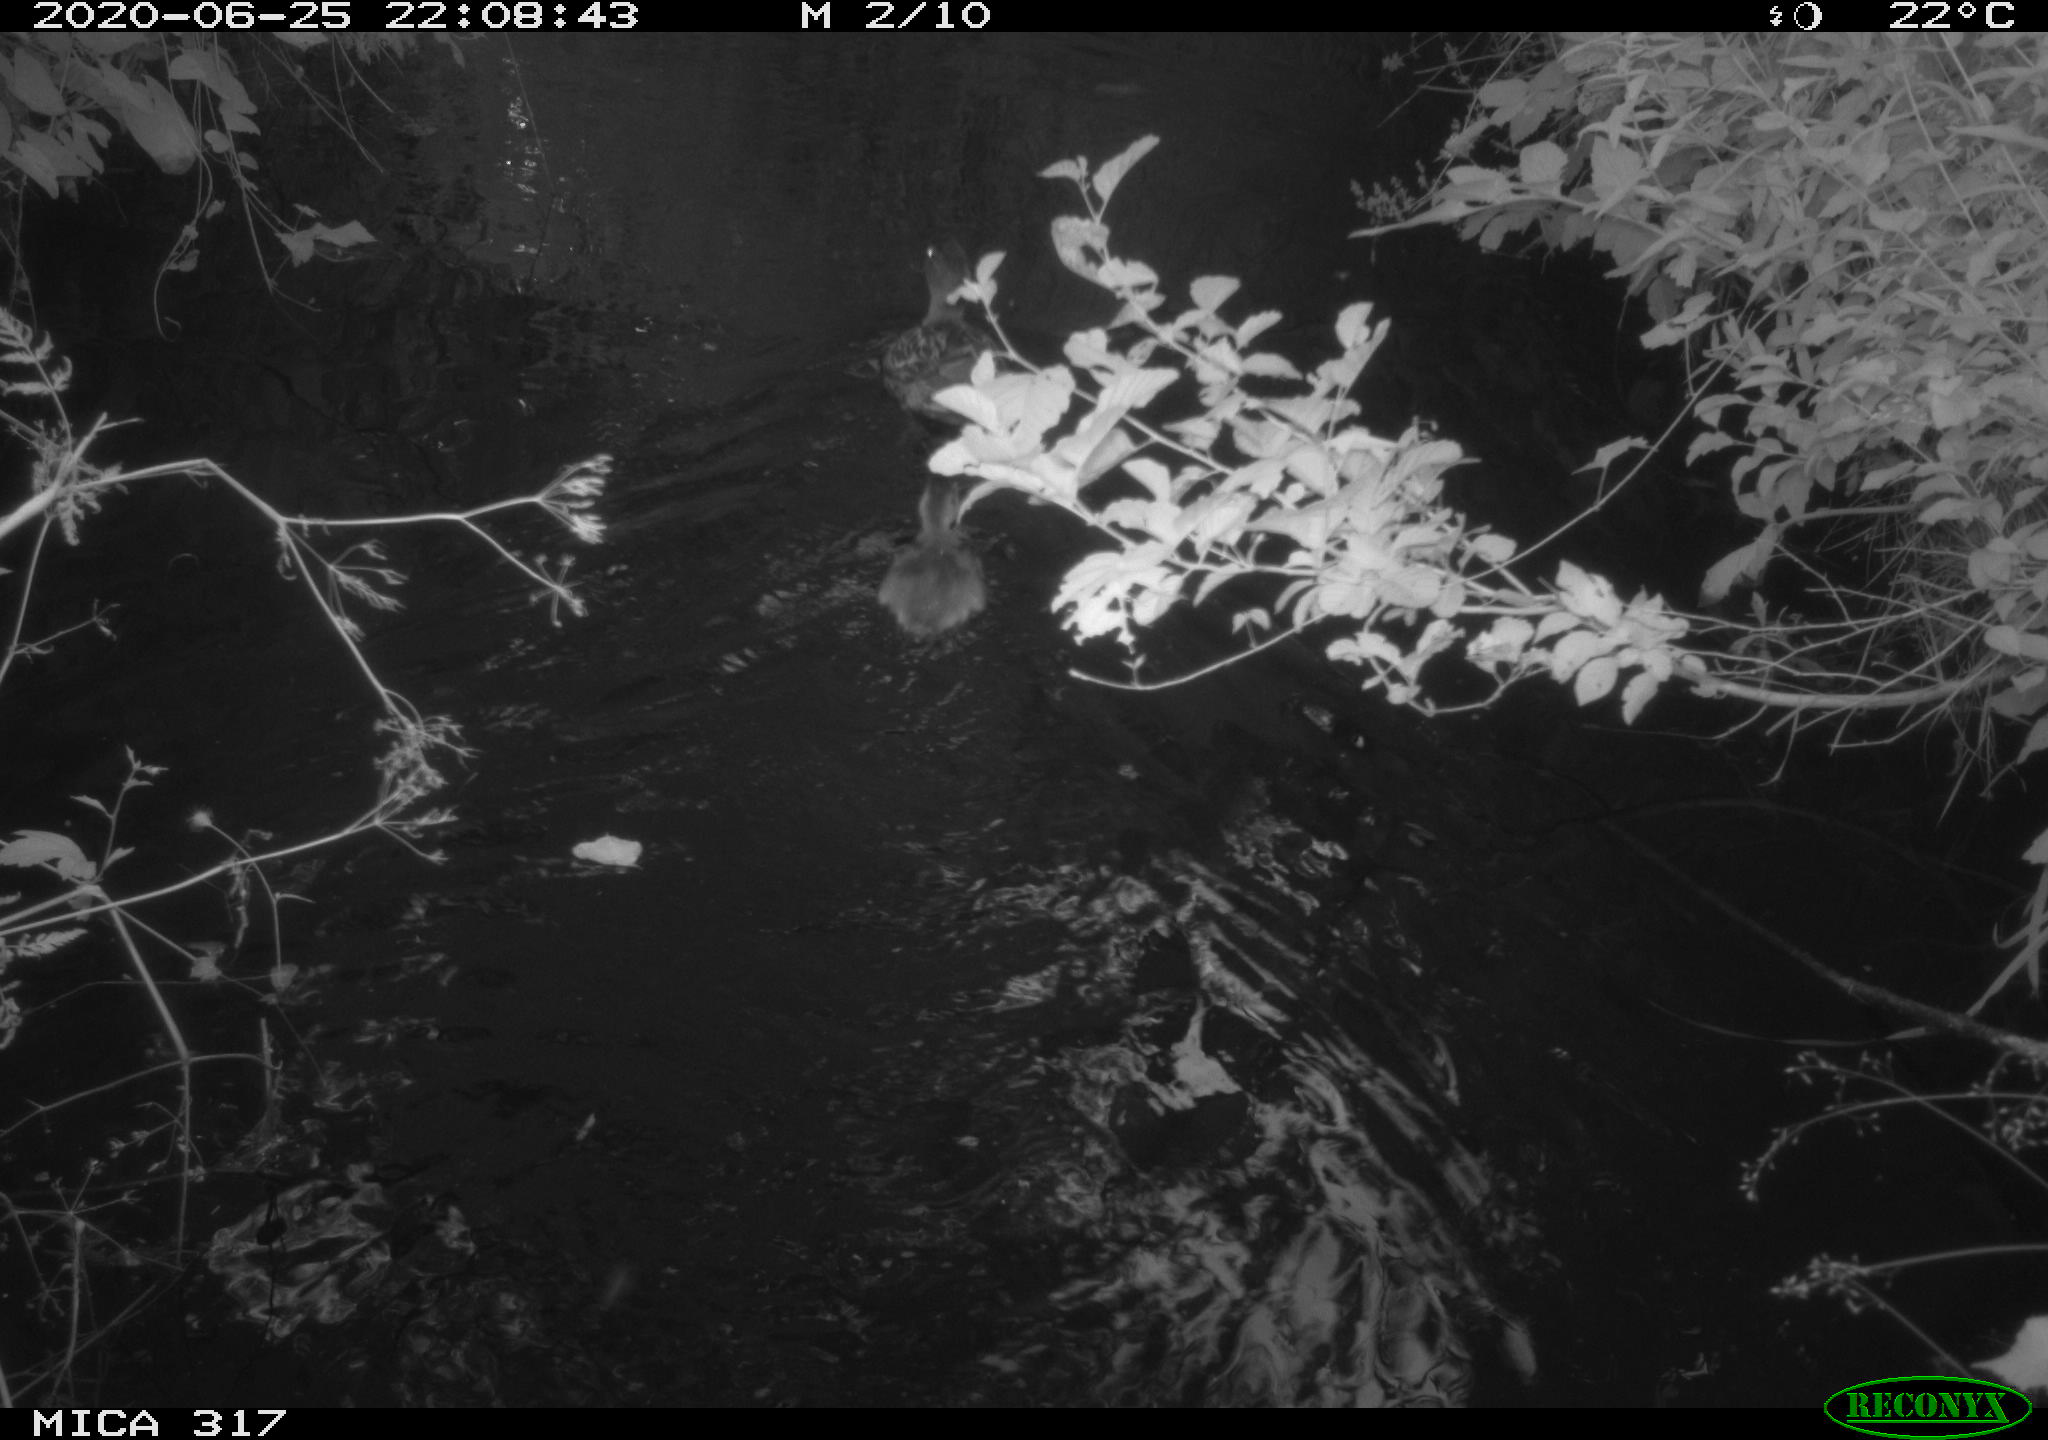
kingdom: Animalia
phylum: Chordata
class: Aves
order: Anseriformes
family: Anatidae
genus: Anas
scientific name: Anas platyrhynchos
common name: Mallard
